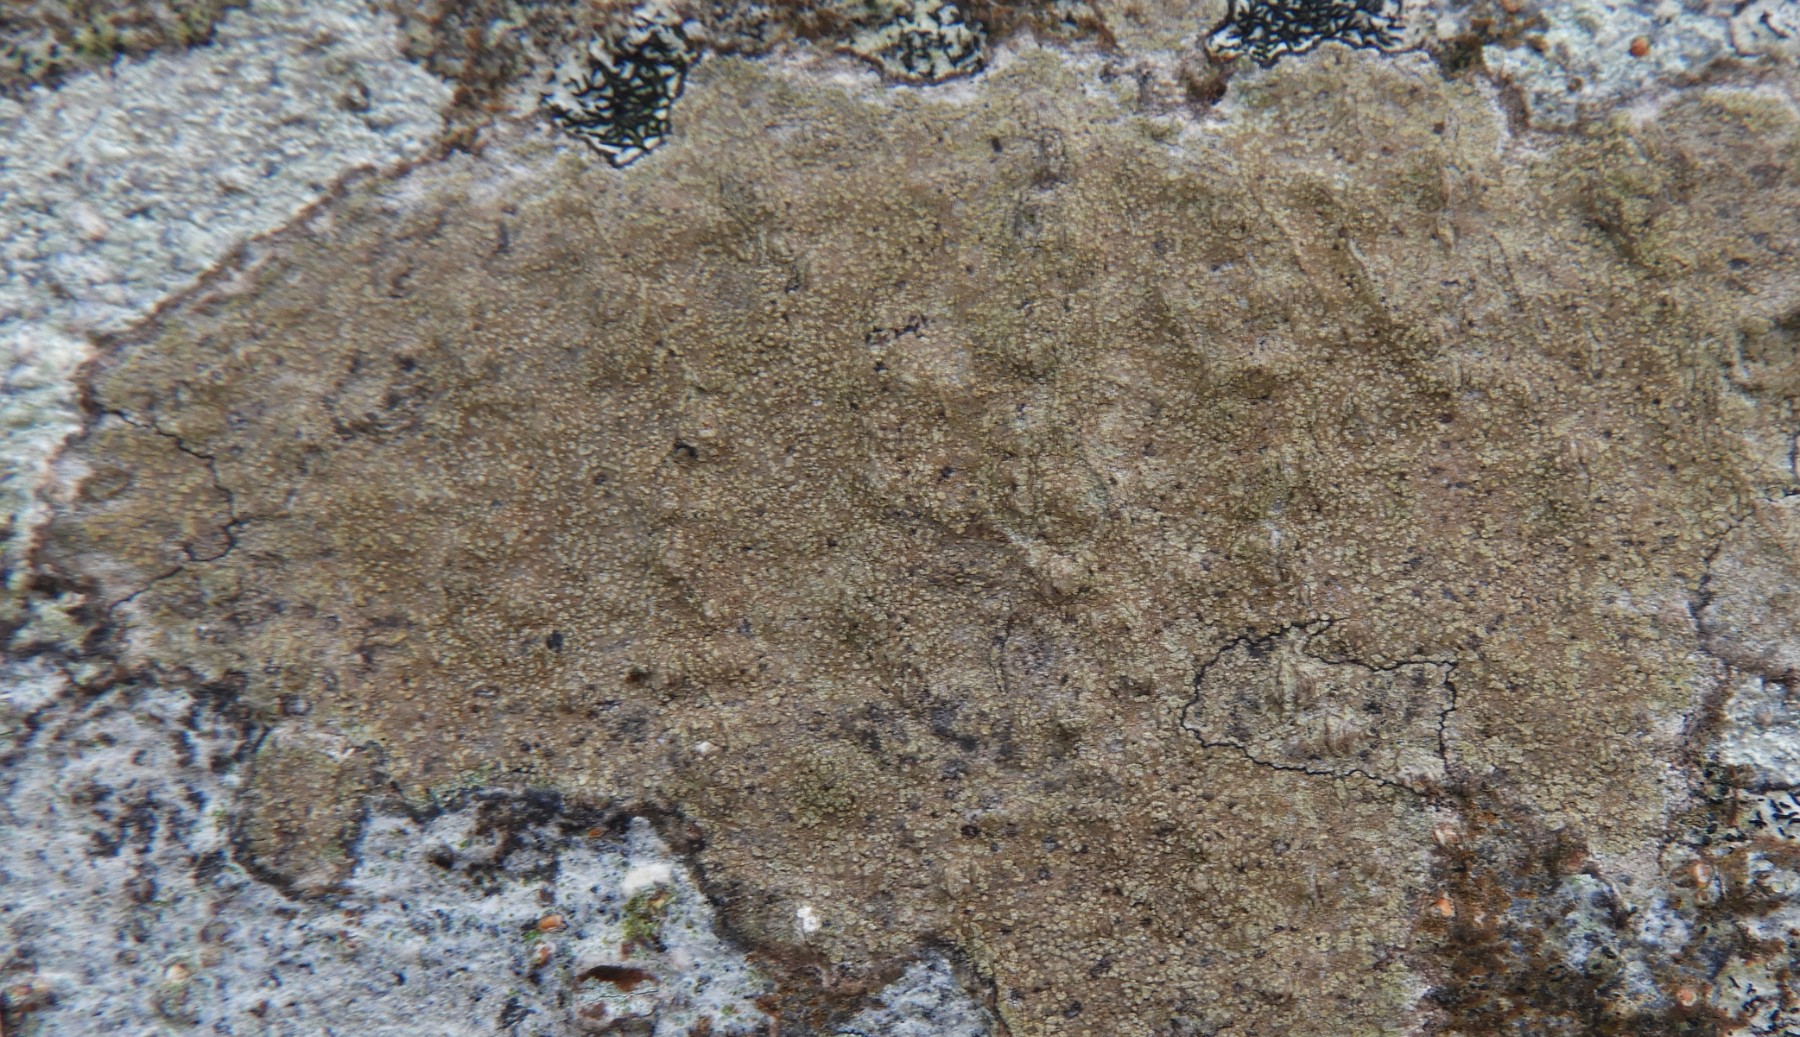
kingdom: Fungi
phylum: Ascomycota
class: Lecanoromycetes
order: Lecanorales
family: Parmeliaceae
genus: Lichen
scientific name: Lichen
